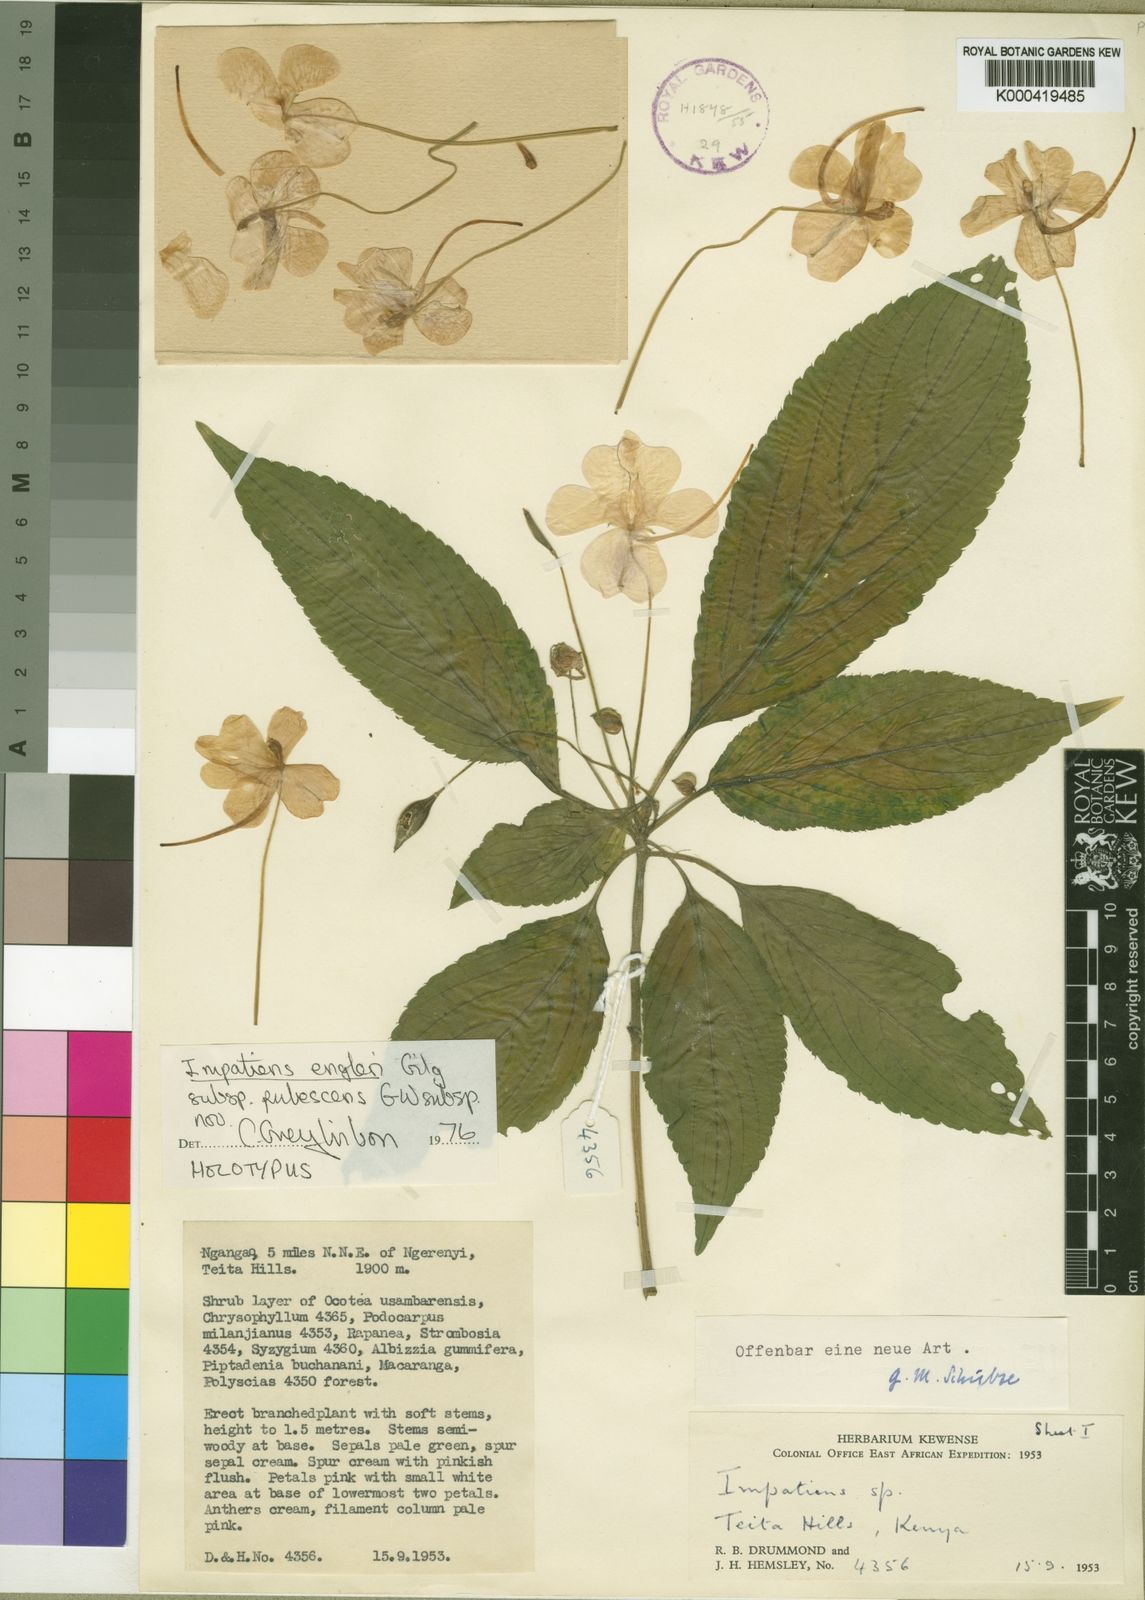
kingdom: Plantae
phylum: Tracheophyta
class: Magnoliopsida
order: Ericales
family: Balsaminaceae
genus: Impatiens
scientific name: Impatiens engleri
